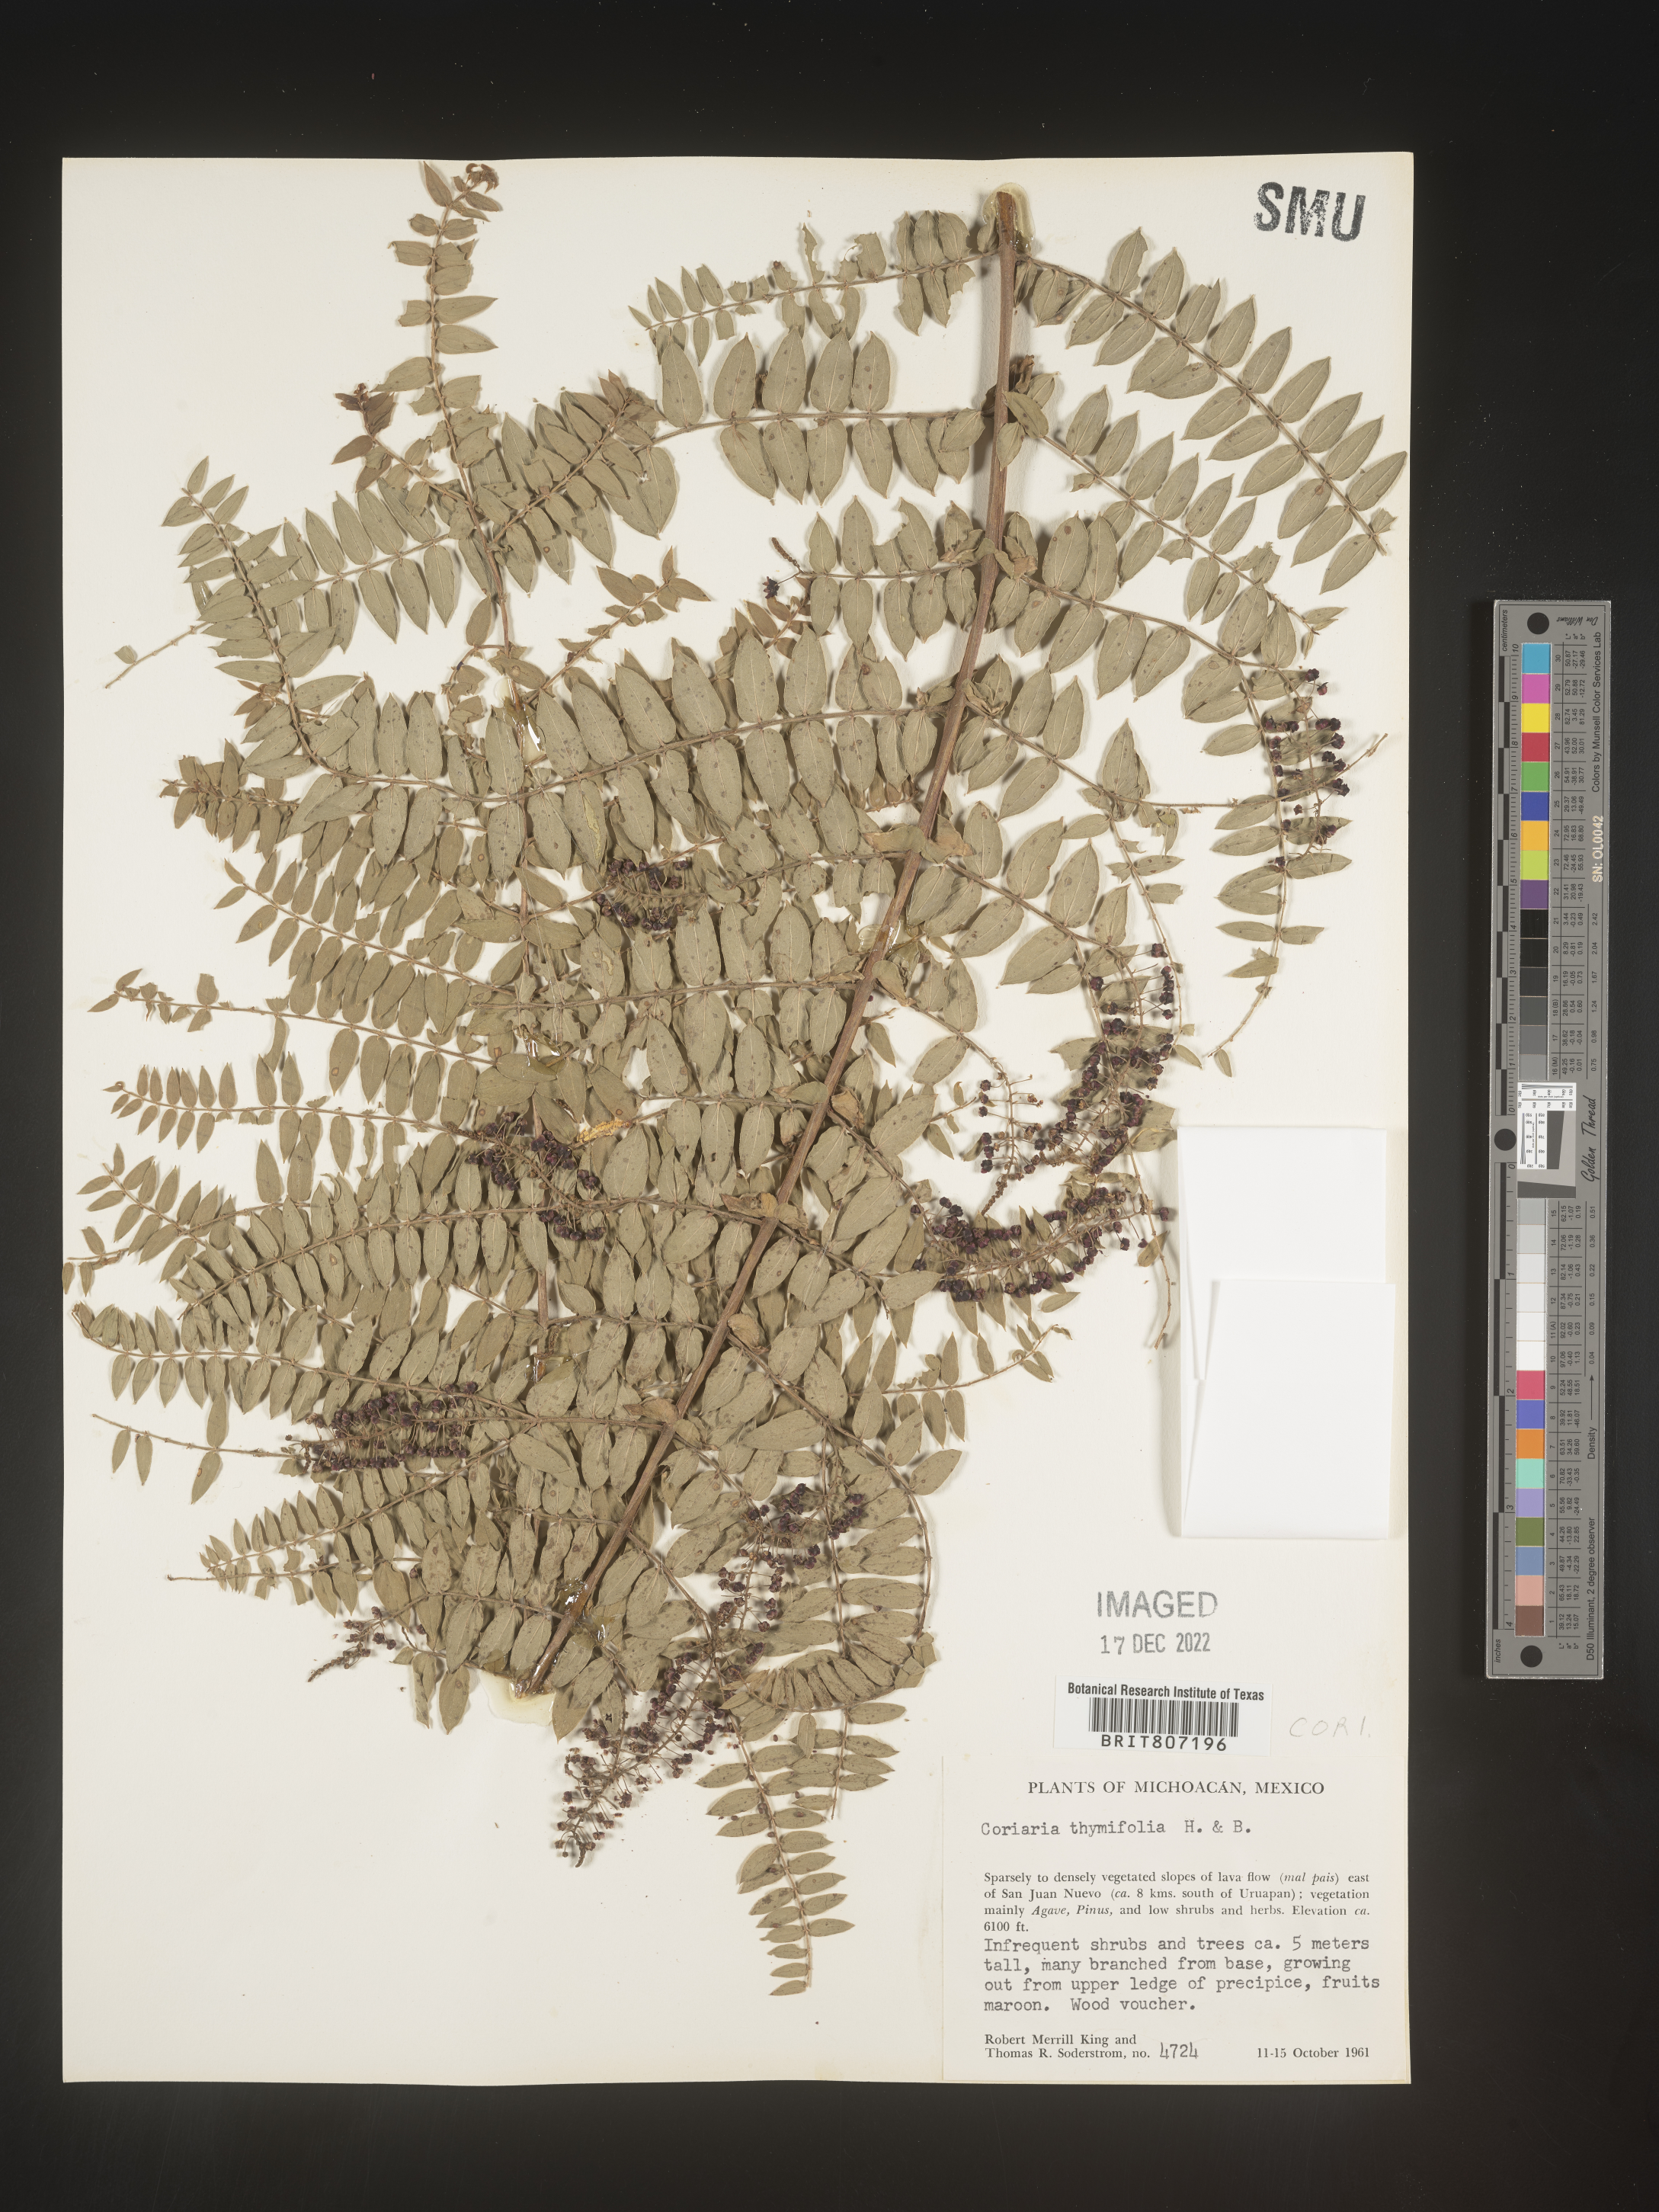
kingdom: Plantae
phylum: Tracheophyta
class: Magnoliopsida
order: Cucurbitales
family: Coriariaceae
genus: Coriaria
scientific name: Coriaria
